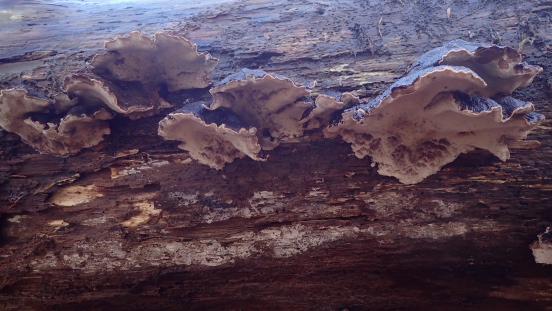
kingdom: Fungi
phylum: Basidiomycota
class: Agaricomycetes
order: Polyporales
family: Ischnodermataceae
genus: Ischnoderma
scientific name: Ischnoderma benzoinum
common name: gran-tjæreporesvamp
